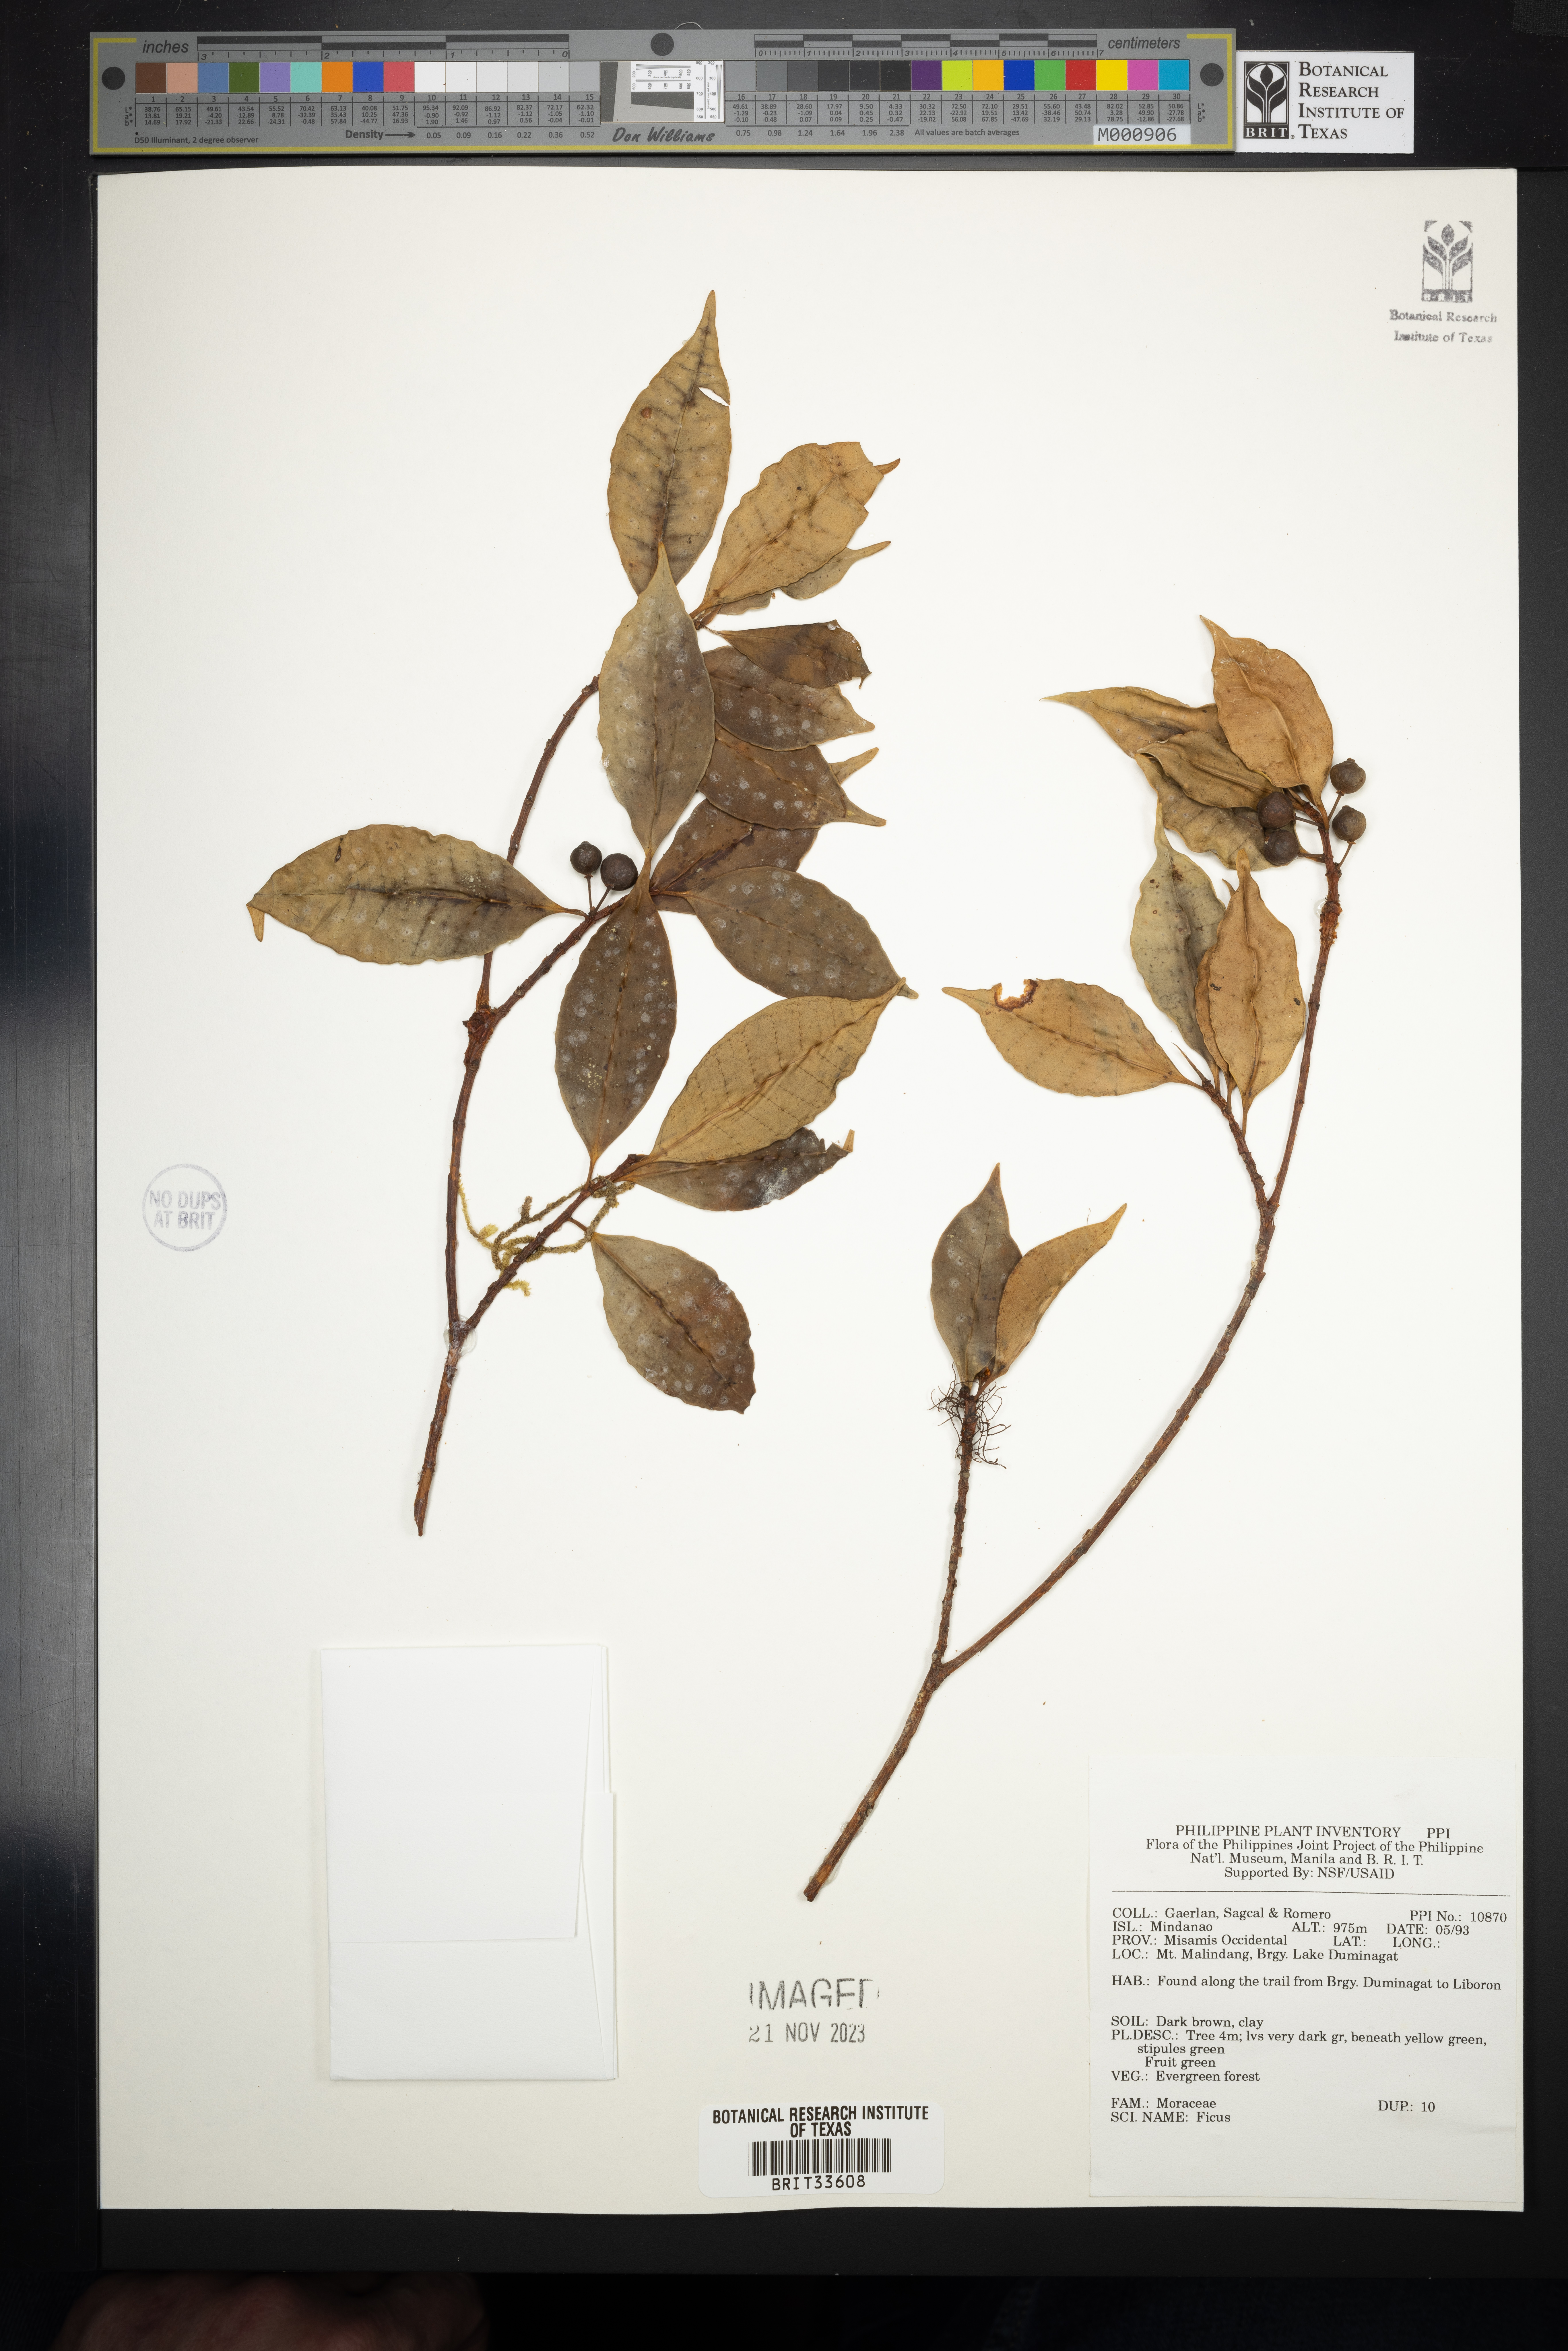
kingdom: Plantae
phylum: Tracheophyta
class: Magnoliopsida
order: Rosales
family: Moraceae
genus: Ficus
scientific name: Ficus
